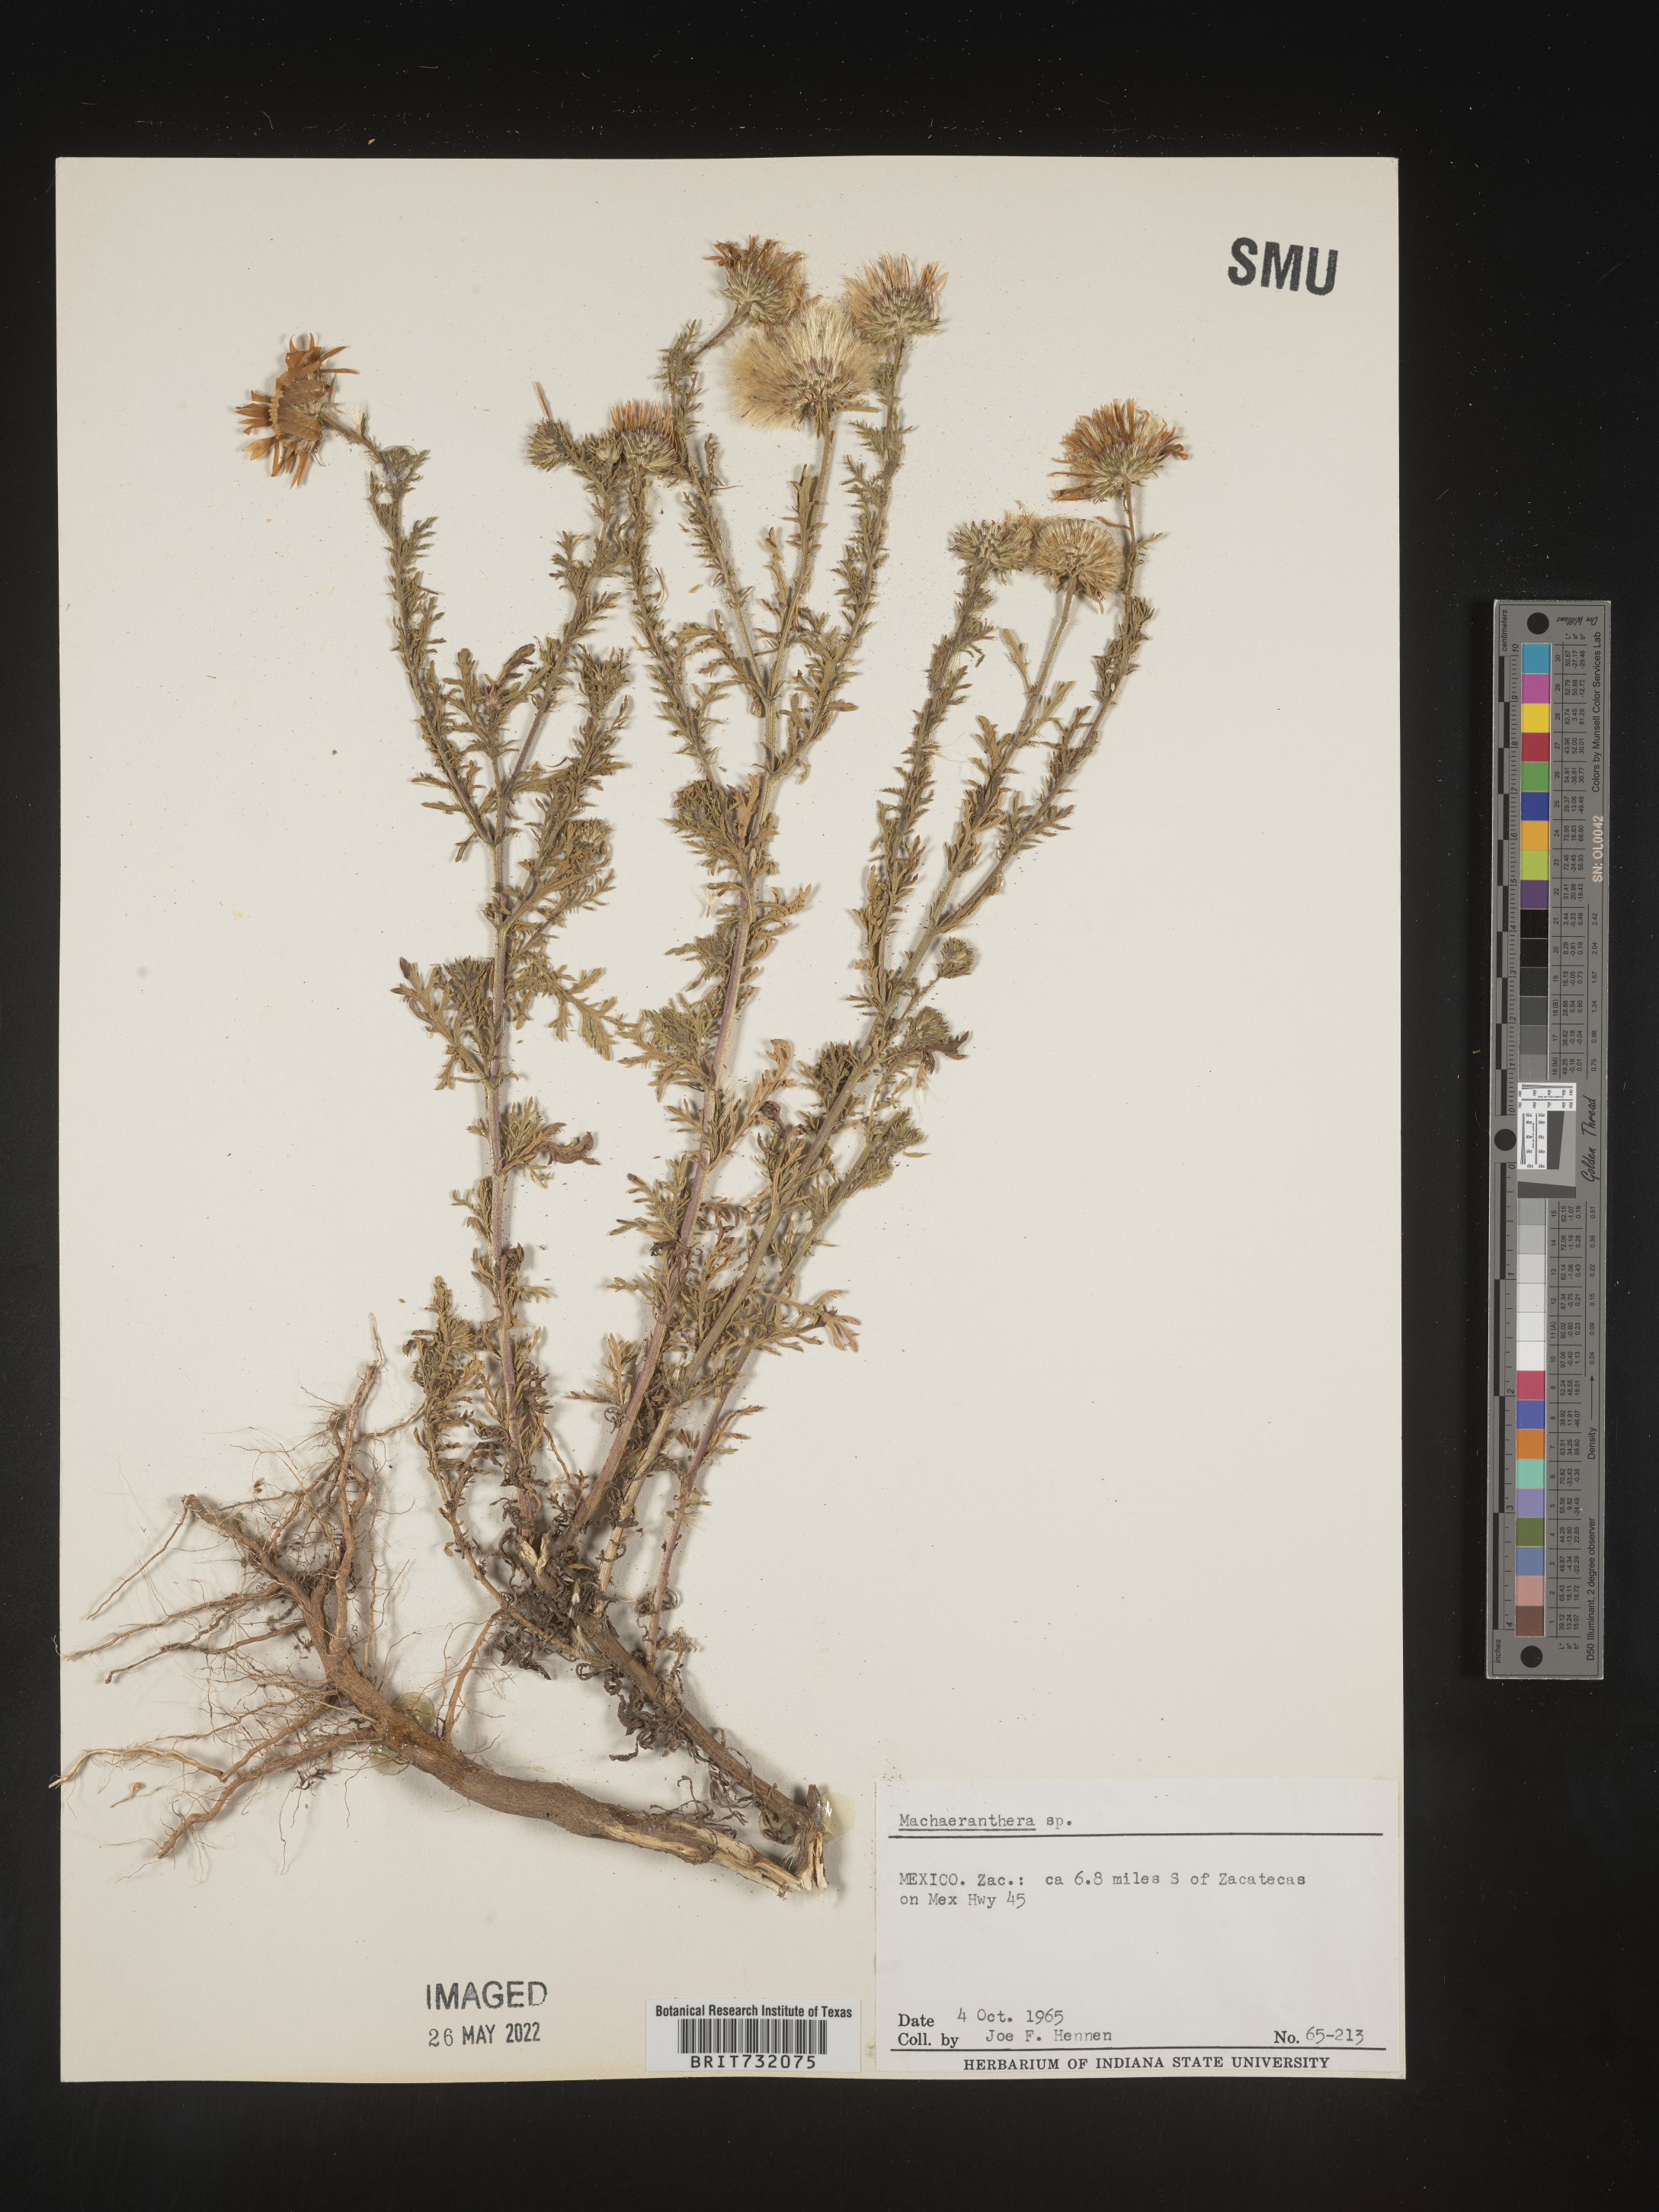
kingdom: Plantae
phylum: Tracheophyta
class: Magnoliopsida
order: Asterales
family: Asteraceae
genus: Machaeranthera
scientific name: Machaeranthera
